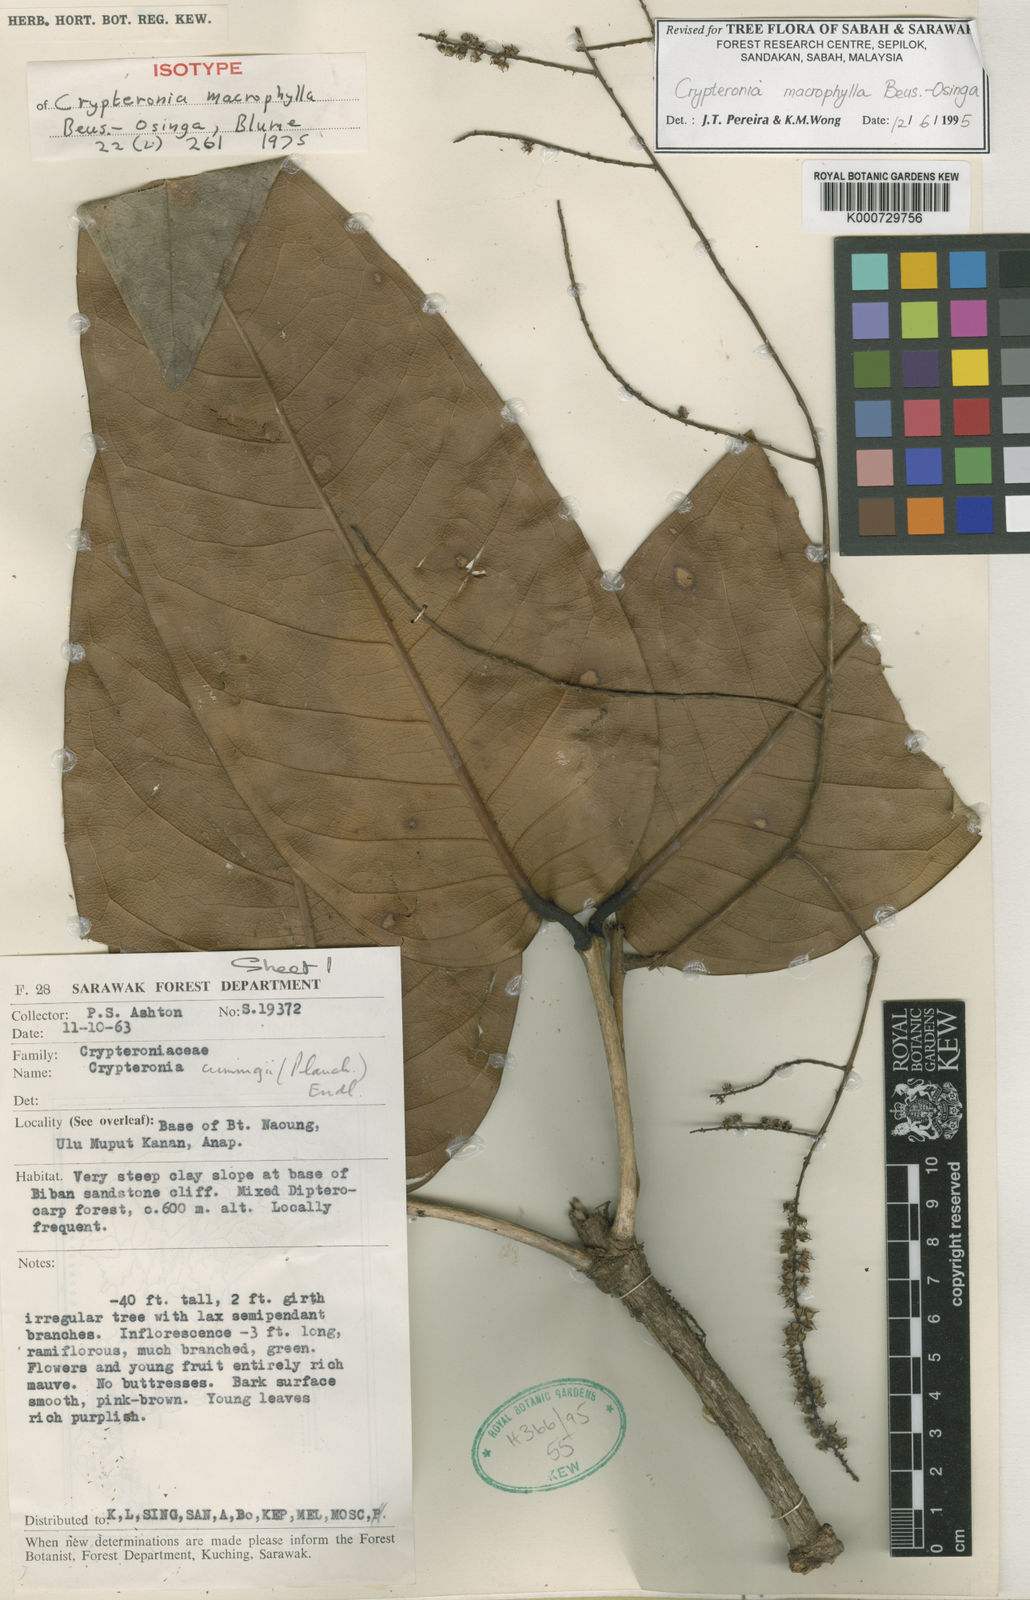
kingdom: Plantae
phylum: Tracheophyta
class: Magnoliopsida
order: Myrtales
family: Crypteroniaceae
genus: Crypteronia
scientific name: Crypteronia macrophylla
